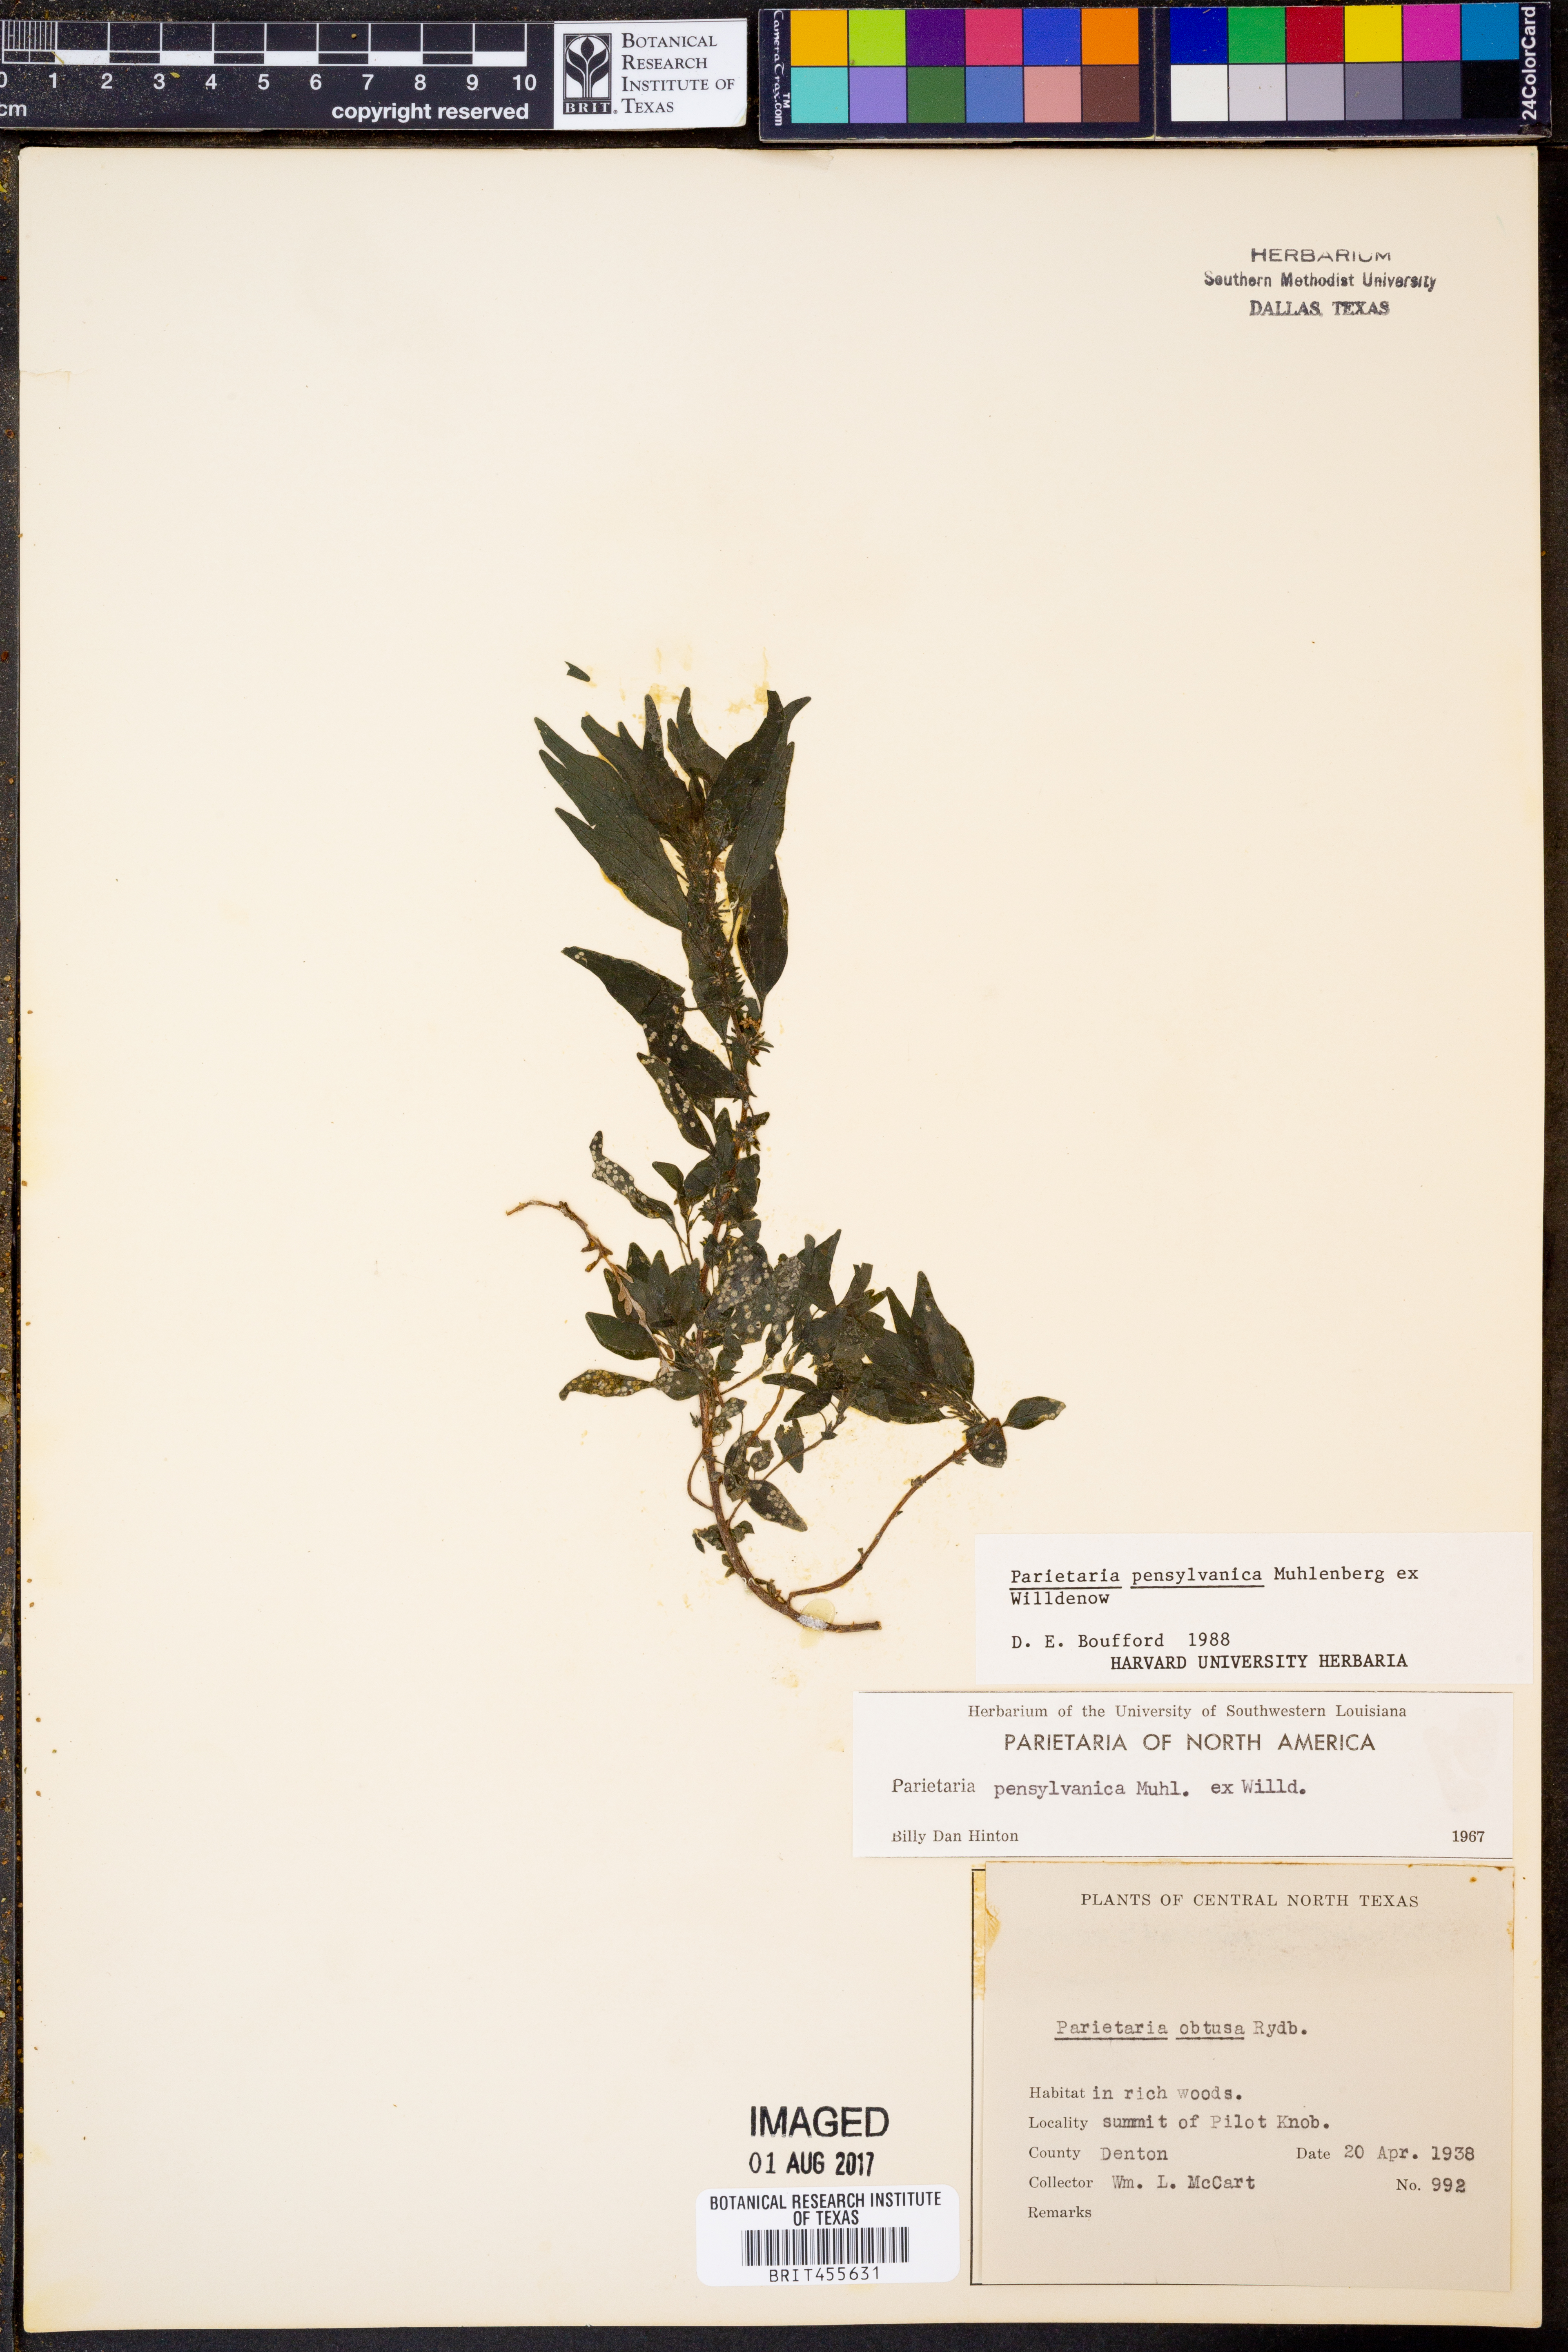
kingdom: Plantae
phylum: Tracheophyta
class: Magnoliopsida
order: Rosales
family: Urticaceae
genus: Parietaria
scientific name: Parietaria pensylvanica
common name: Pennsylvania pellitory
